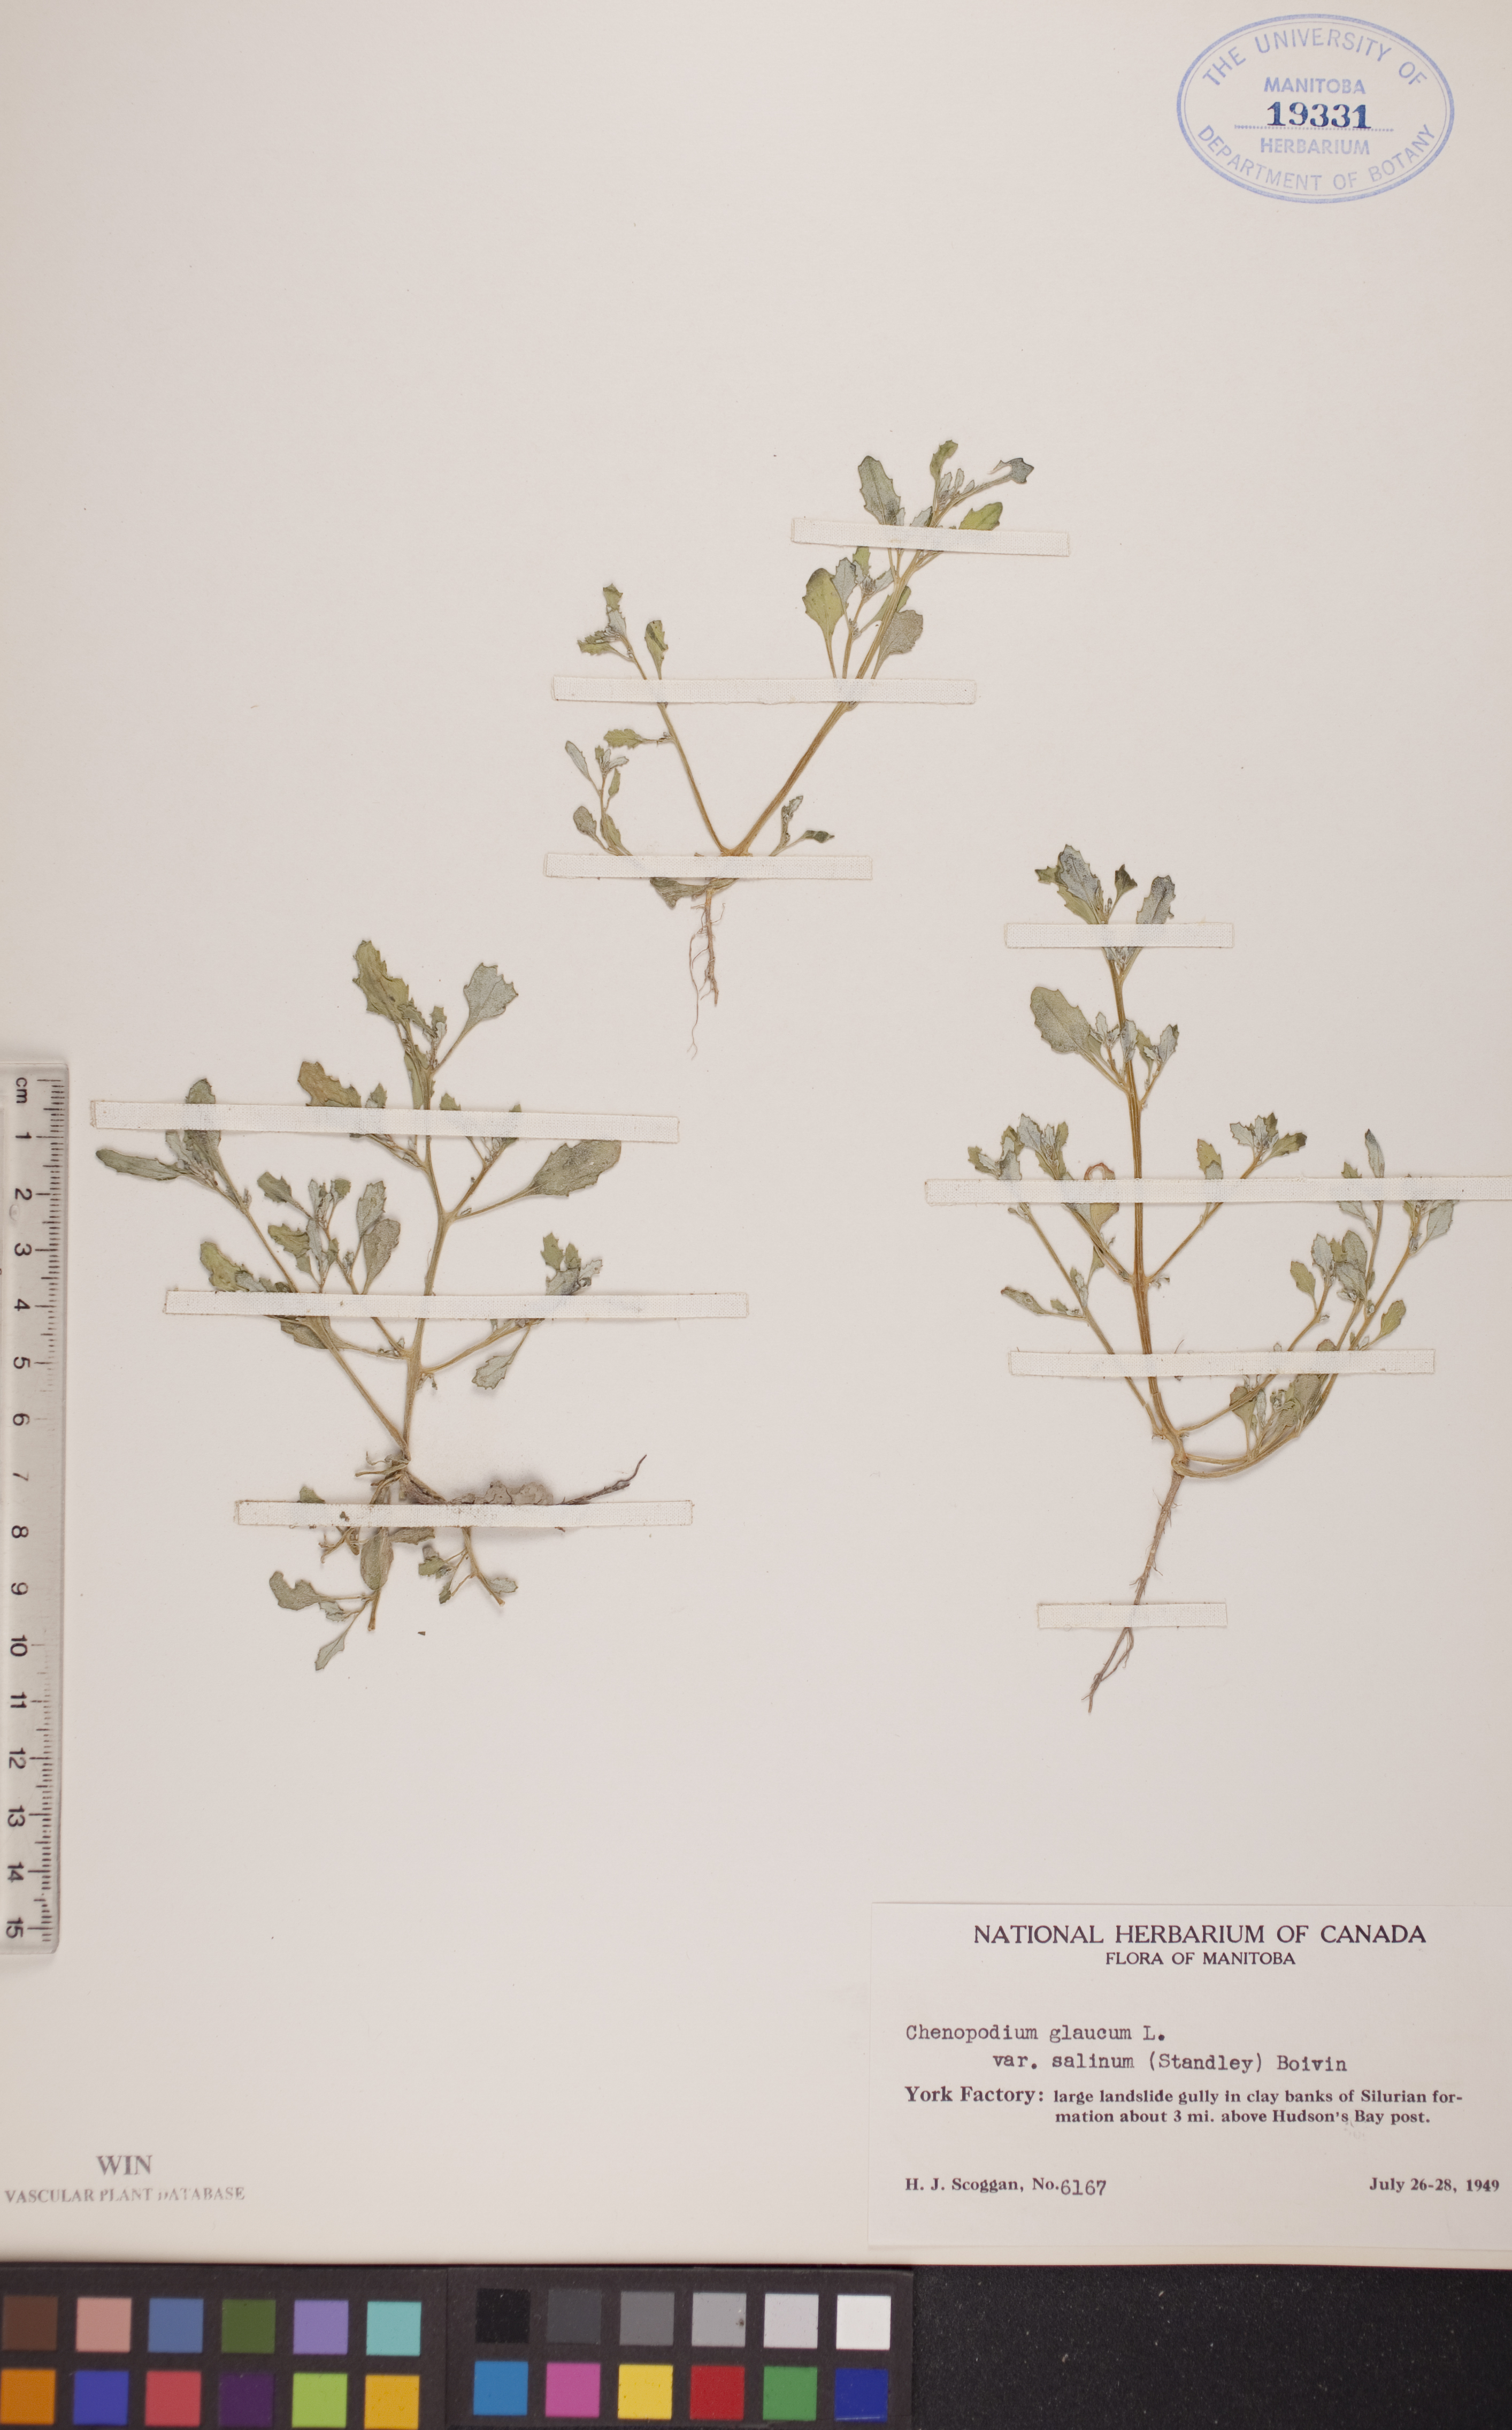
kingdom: Plantae
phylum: Tracheophyta
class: Magnoliopsida
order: Caryophyllales
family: Amaranthaceae
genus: Oxybasis
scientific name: Oxybasis salina
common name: Rocky mountain goosefoot
